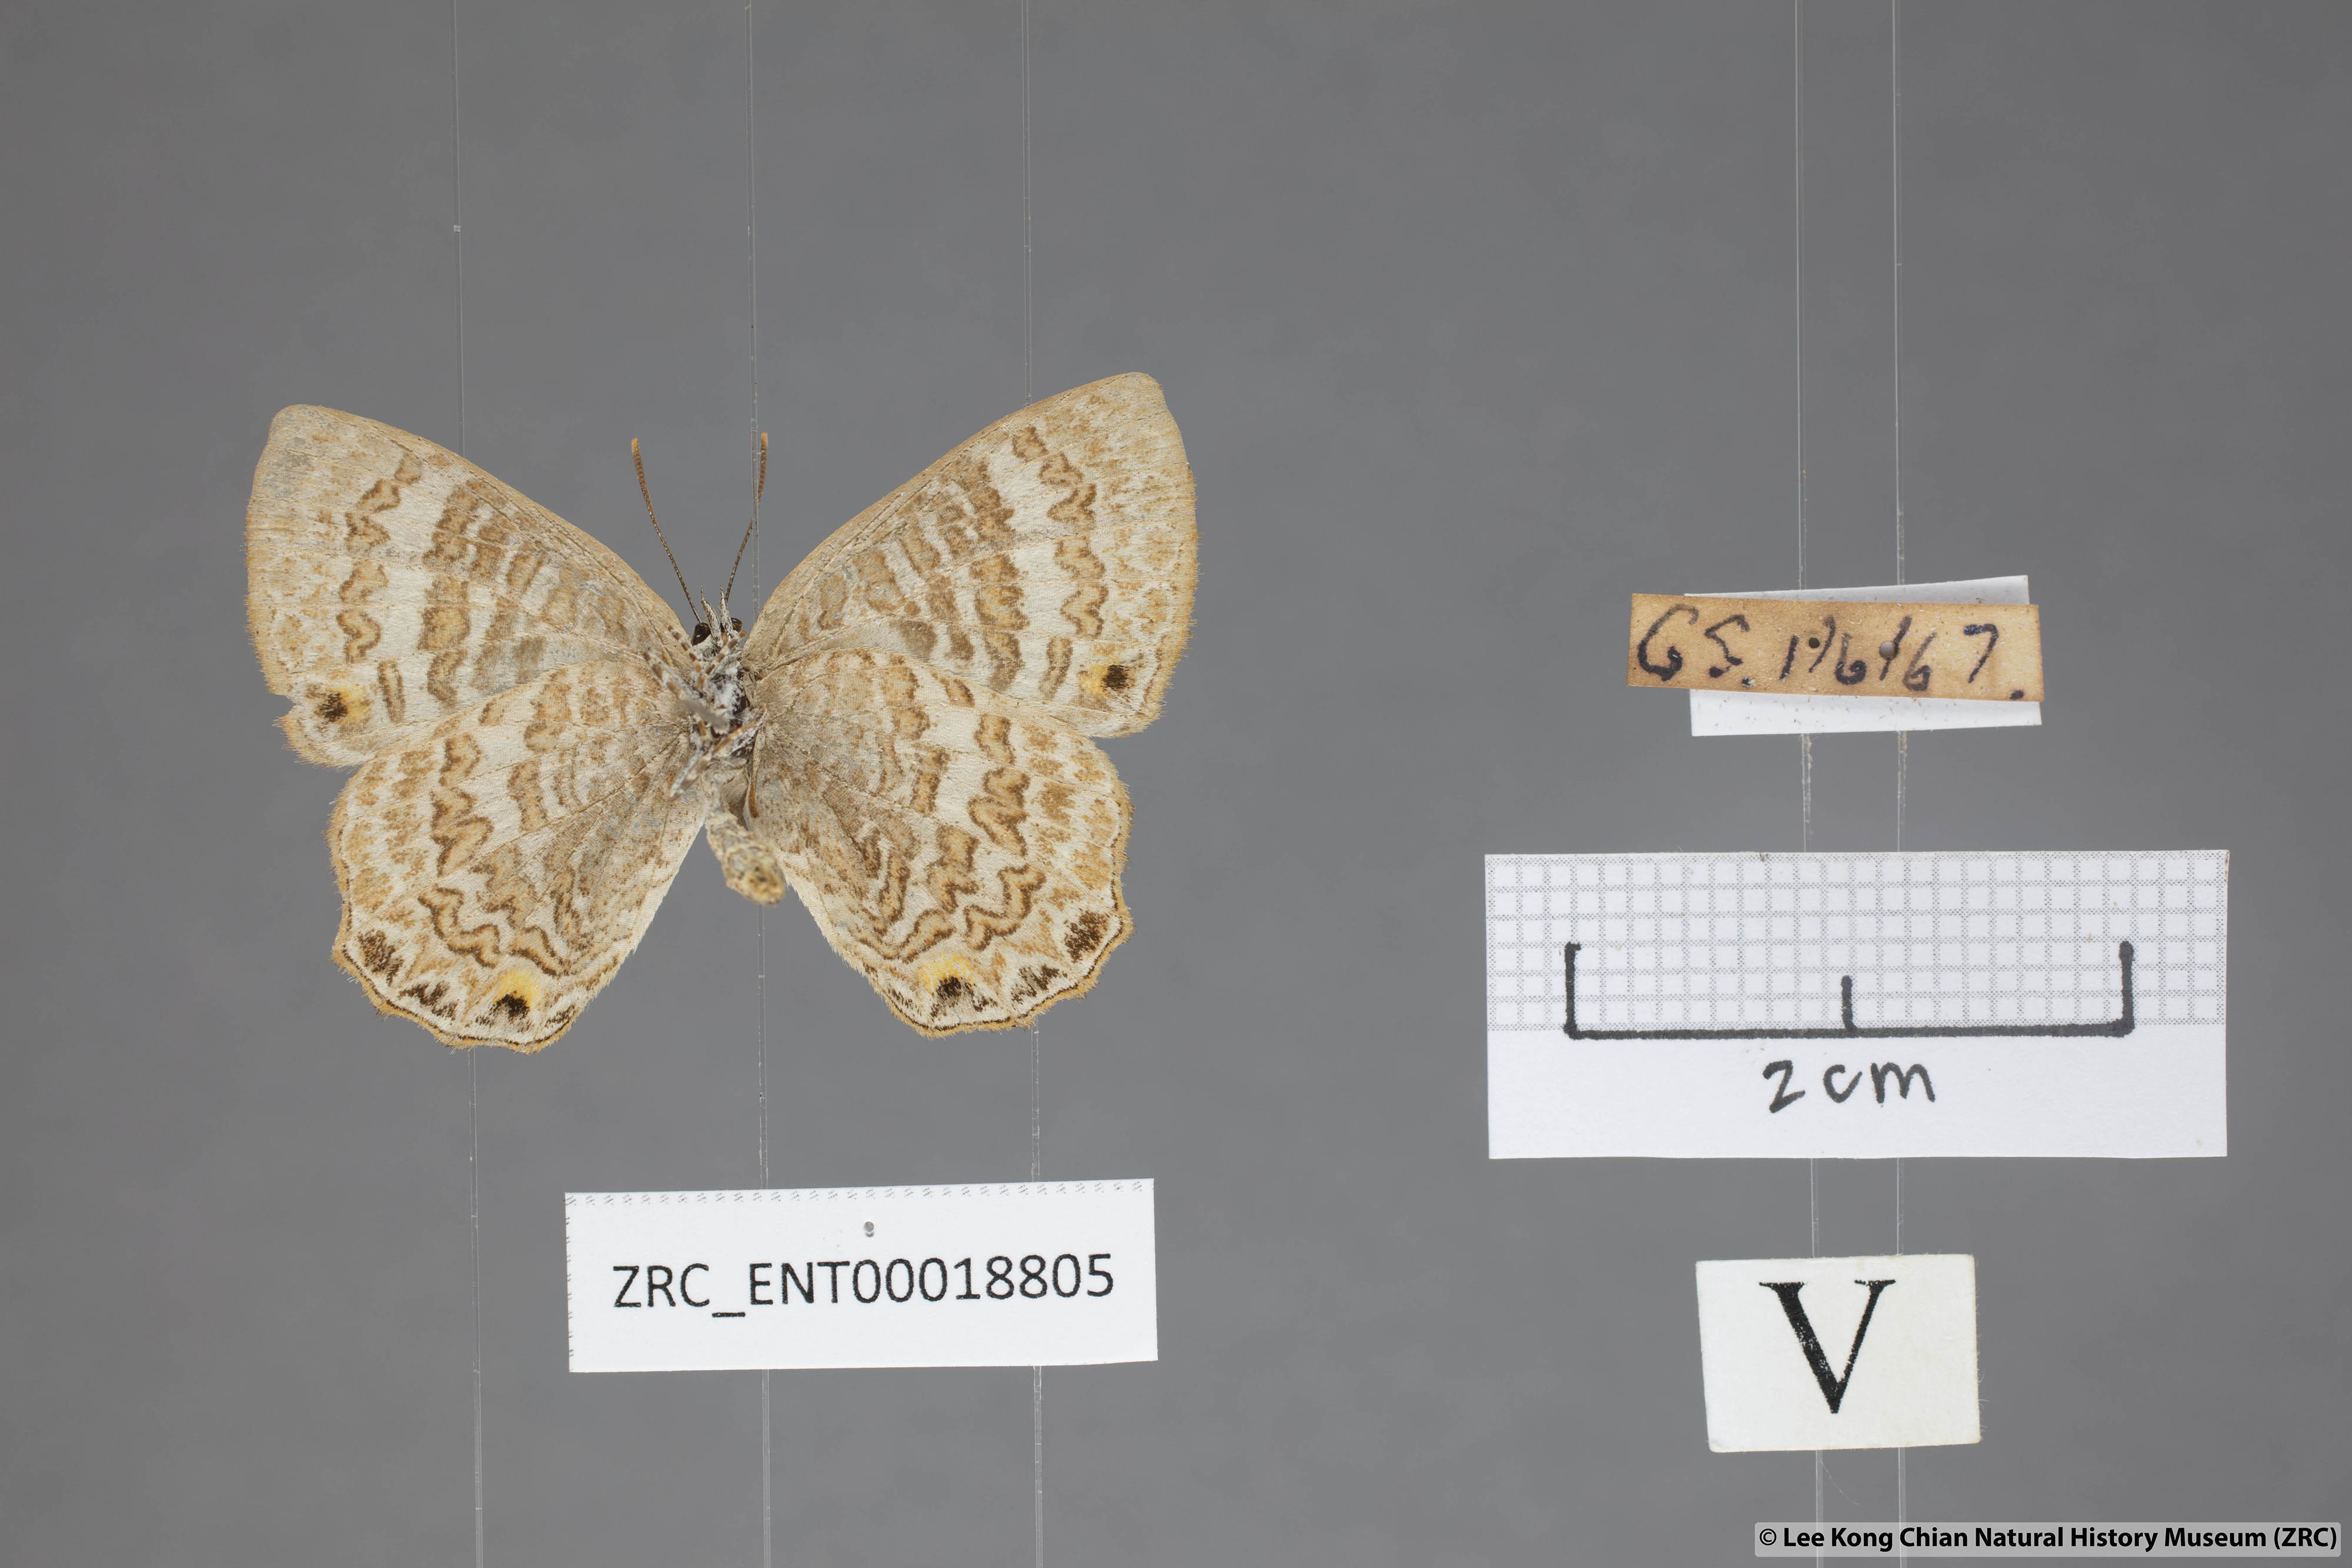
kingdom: Animalia
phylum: Arthropoda
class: Insecta
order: Lepidoptera
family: Lycaenidae
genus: Poritia
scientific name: Poritia pleurata
